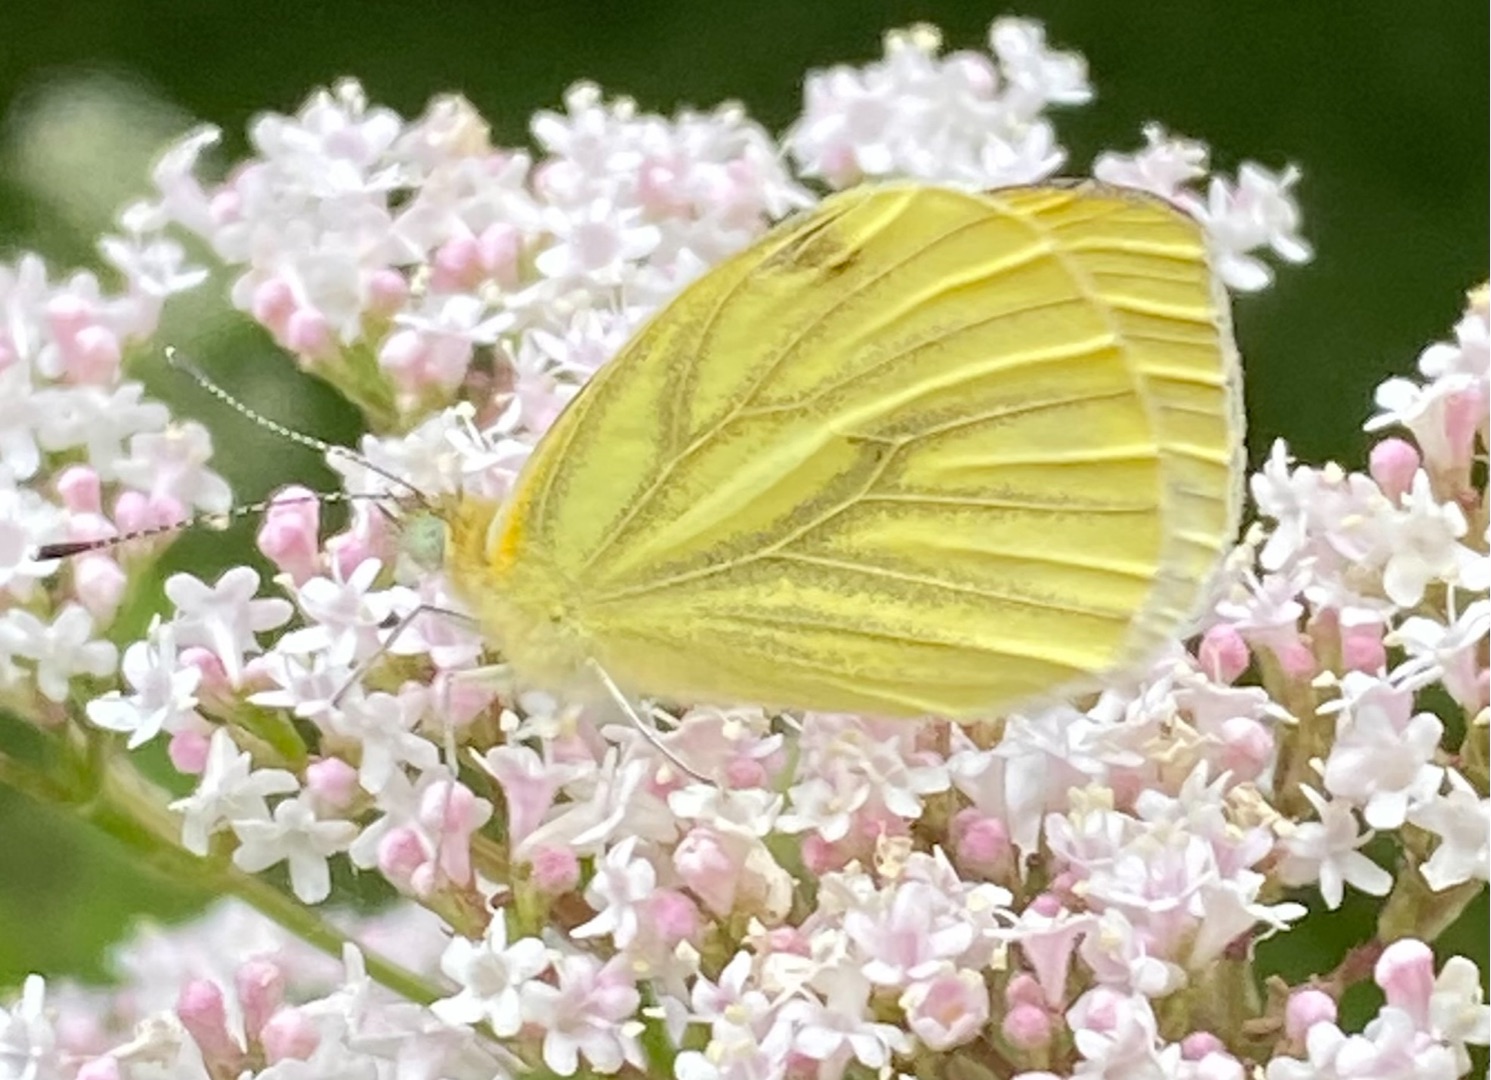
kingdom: Animalia
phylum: Arthropoda
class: Insecta
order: Lepidoptera
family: Pieridae
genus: Pieris
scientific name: Pieris napi
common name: Grønåret kålsommerfugl
